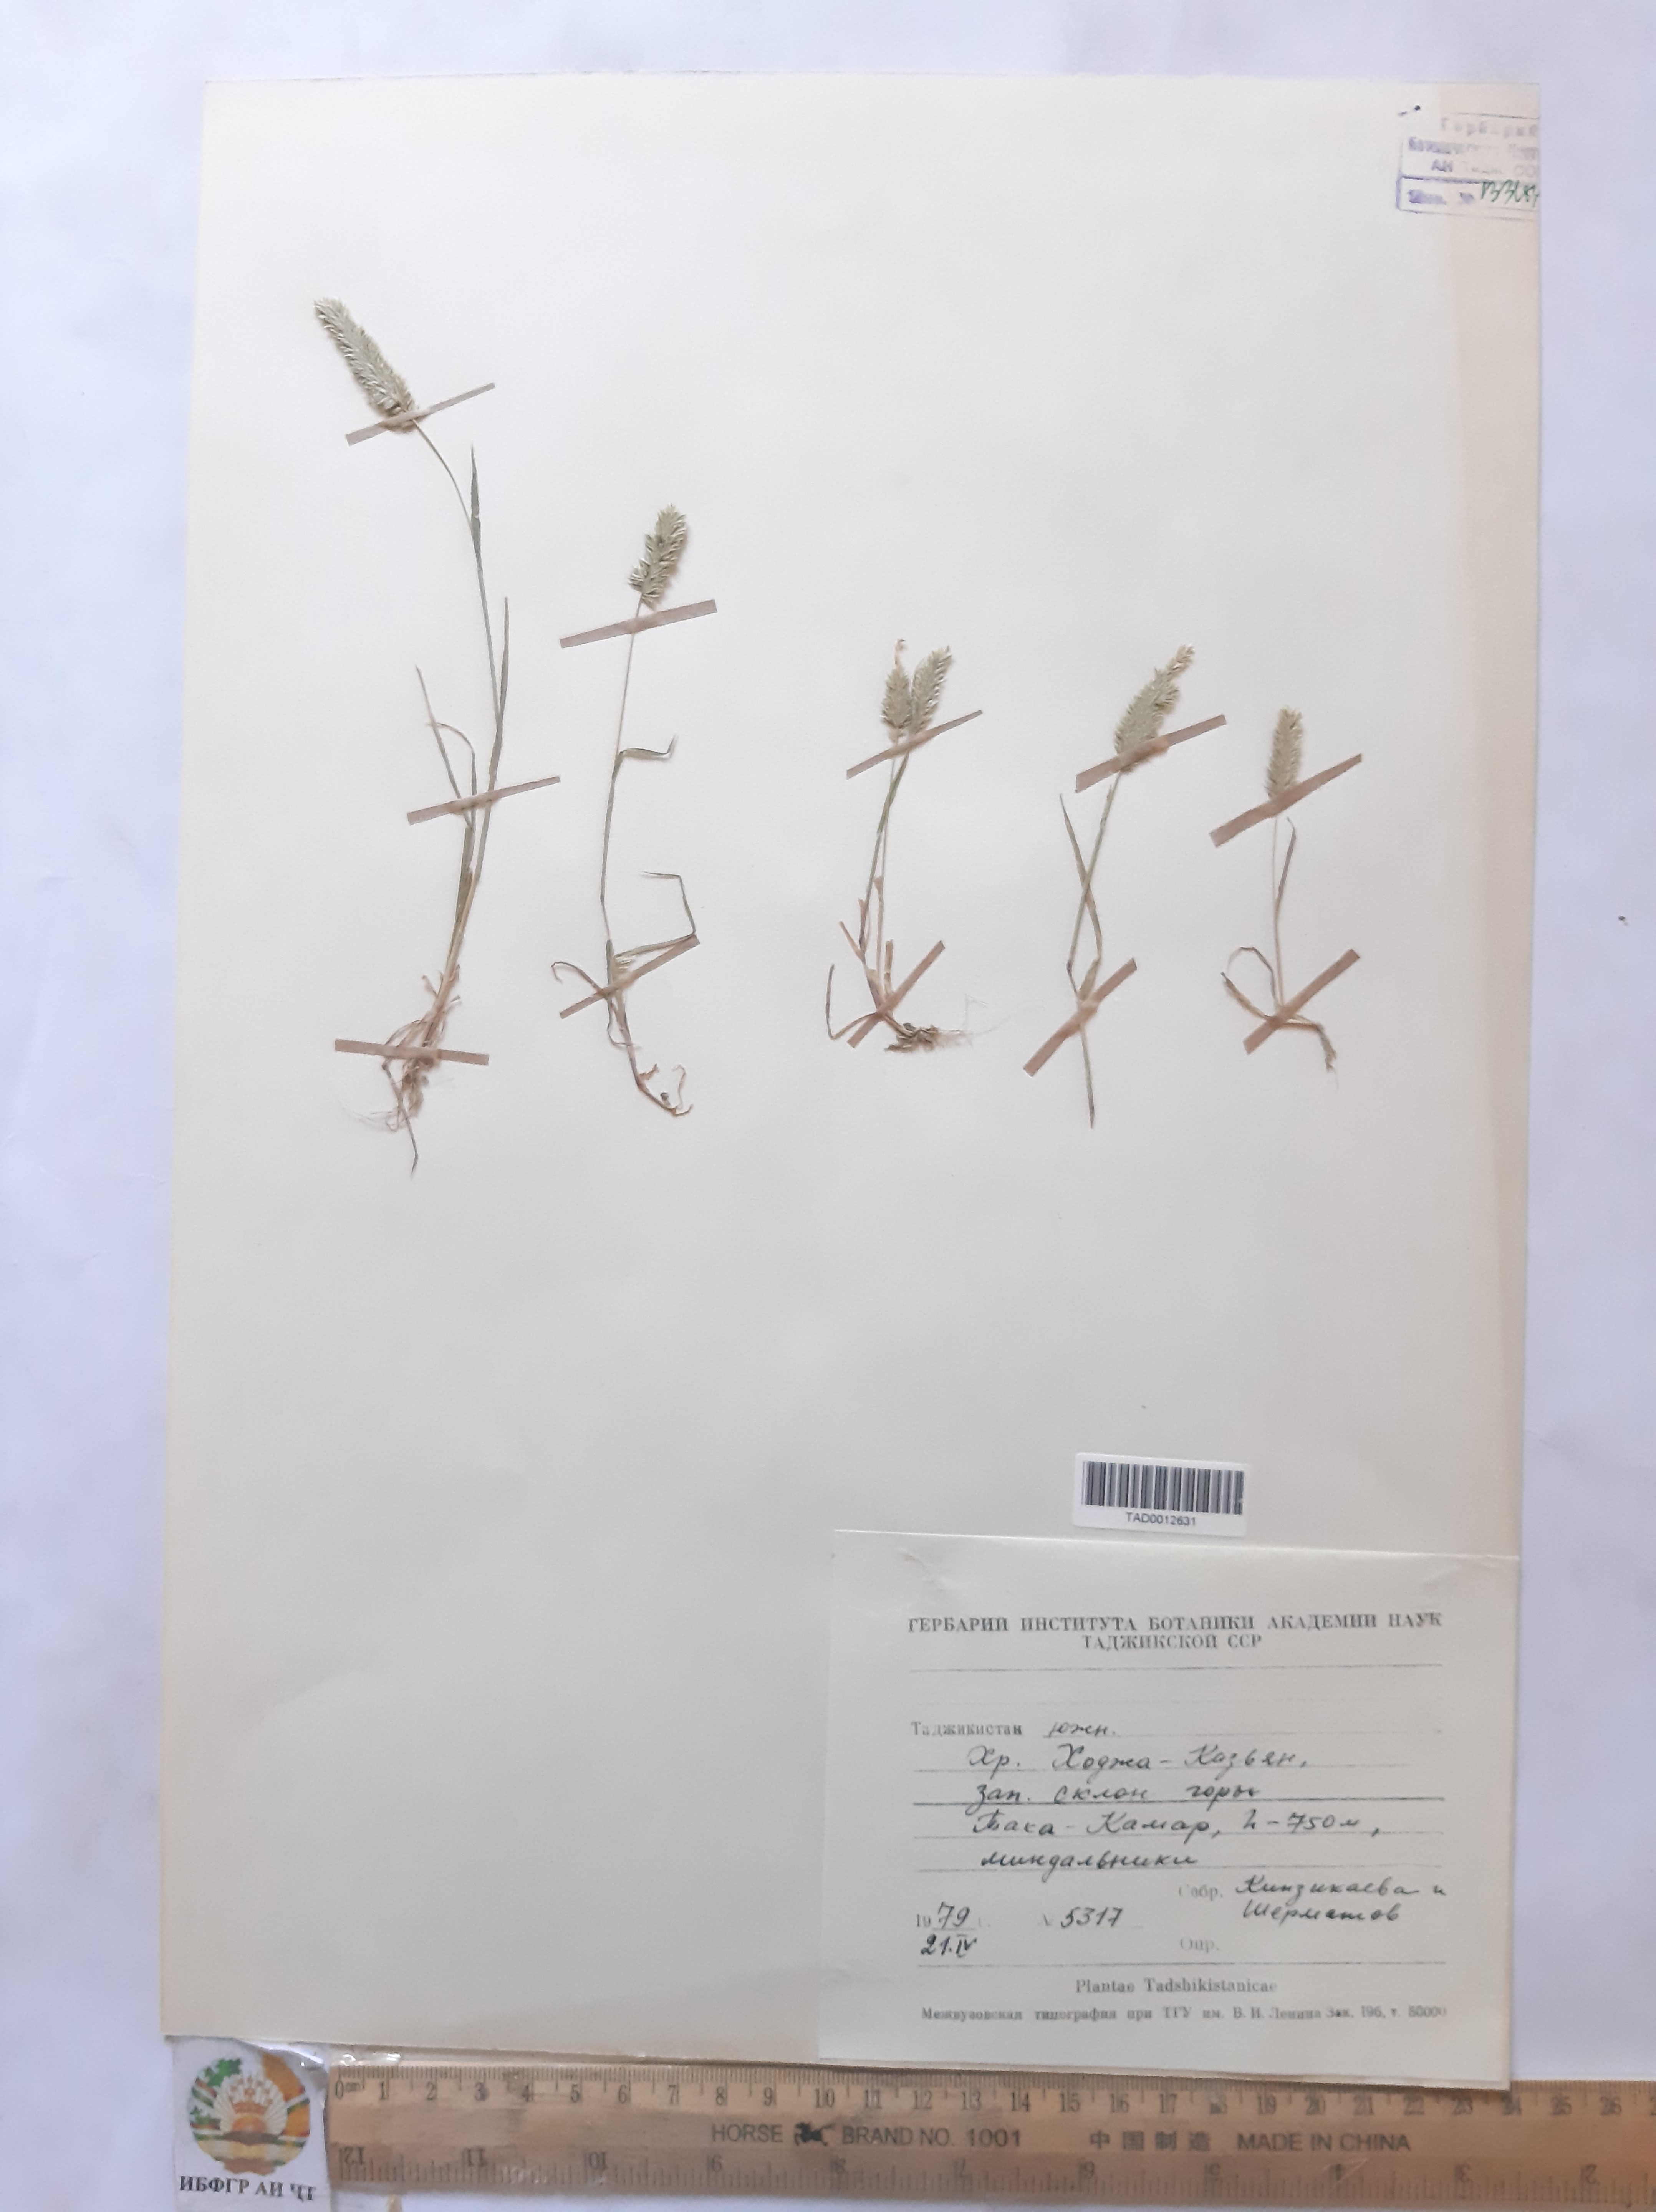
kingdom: Plantae
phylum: Tracheophyta
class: Liliopsida
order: Poales
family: Poaceae
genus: Rostraria
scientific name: Rostraria cristata
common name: Mediterranean hair-grass
